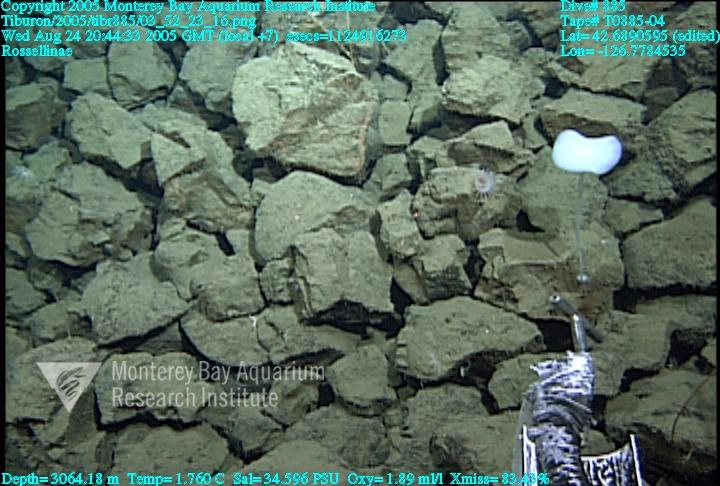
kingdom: Animalia
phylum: Porifera
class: Hexactinellida
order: Lyssacinosida
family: Rossellidae
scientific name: Rossellidae
